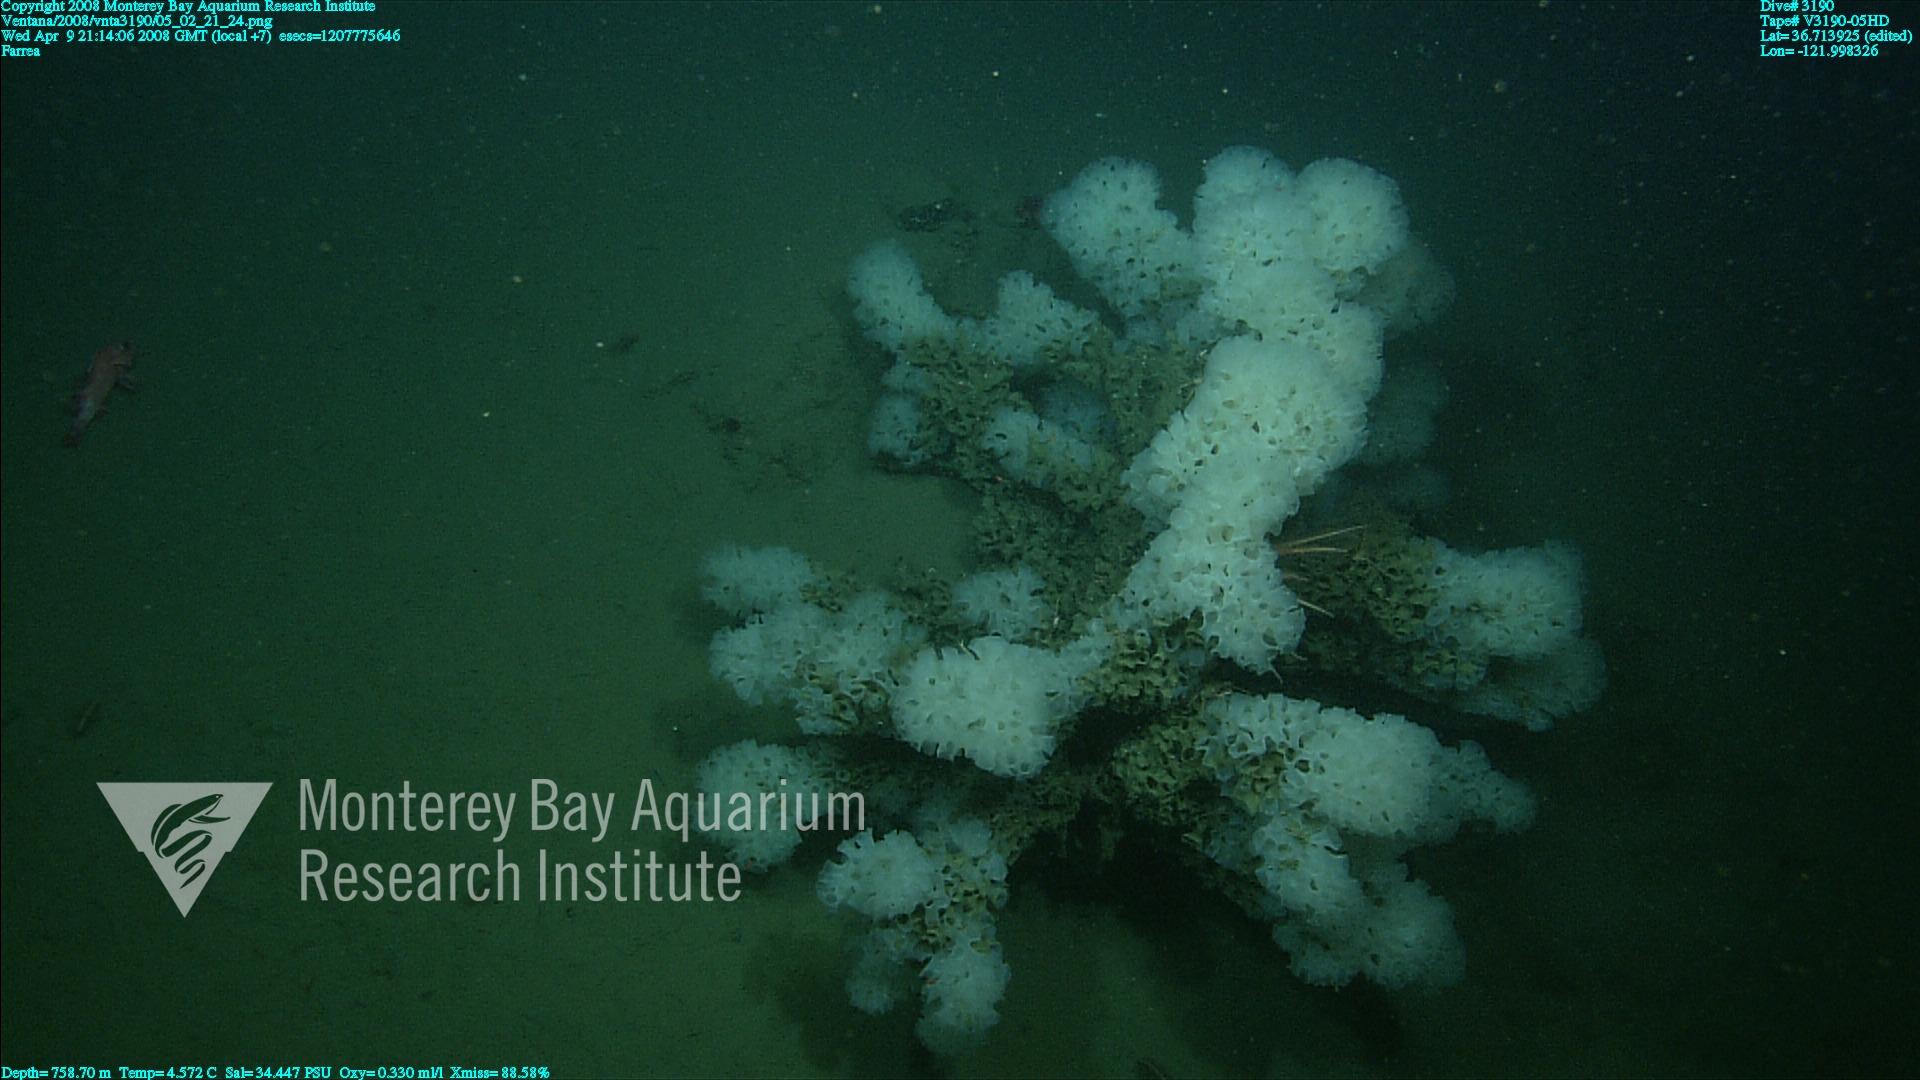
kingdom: Animalia
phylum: Porifera
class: Hexactinellida
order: Sceptrulophora
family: Farreidae
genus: Farrea
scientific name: Farrea
